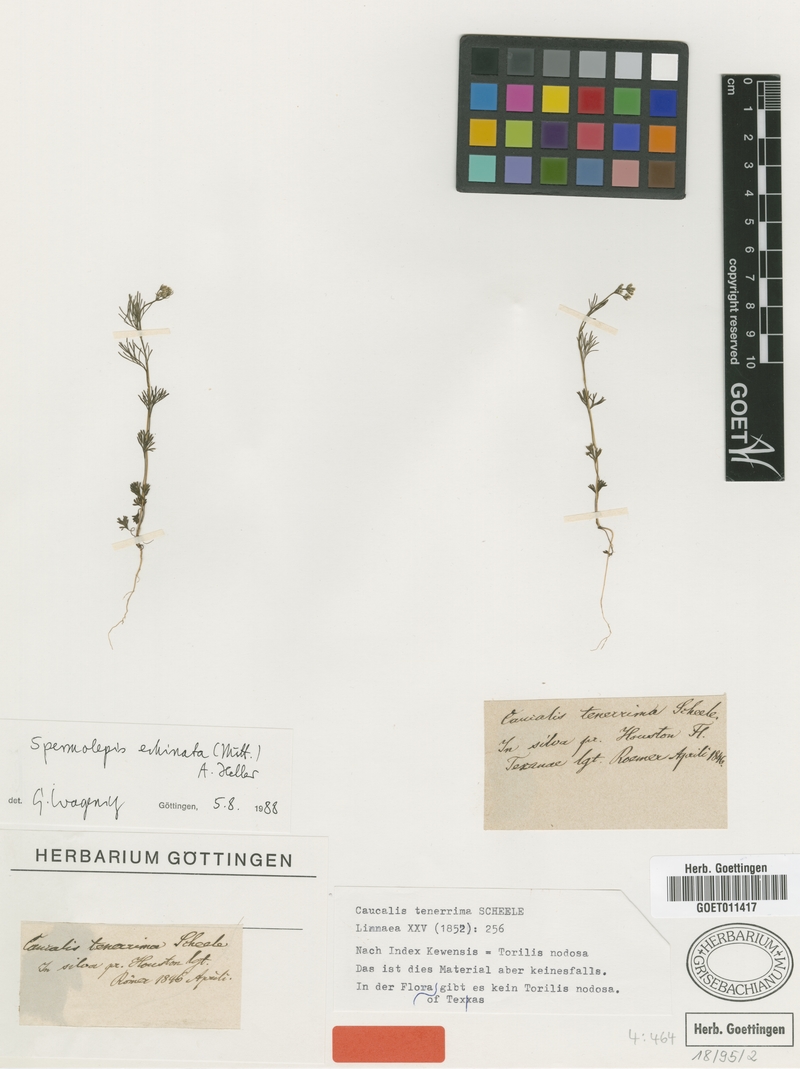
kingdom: Plantae
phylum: Tracheophyta
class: Magnoliopsida
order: Apiales
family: Apiaceae
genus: Spermolepis
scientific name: Spermolepis echinata
